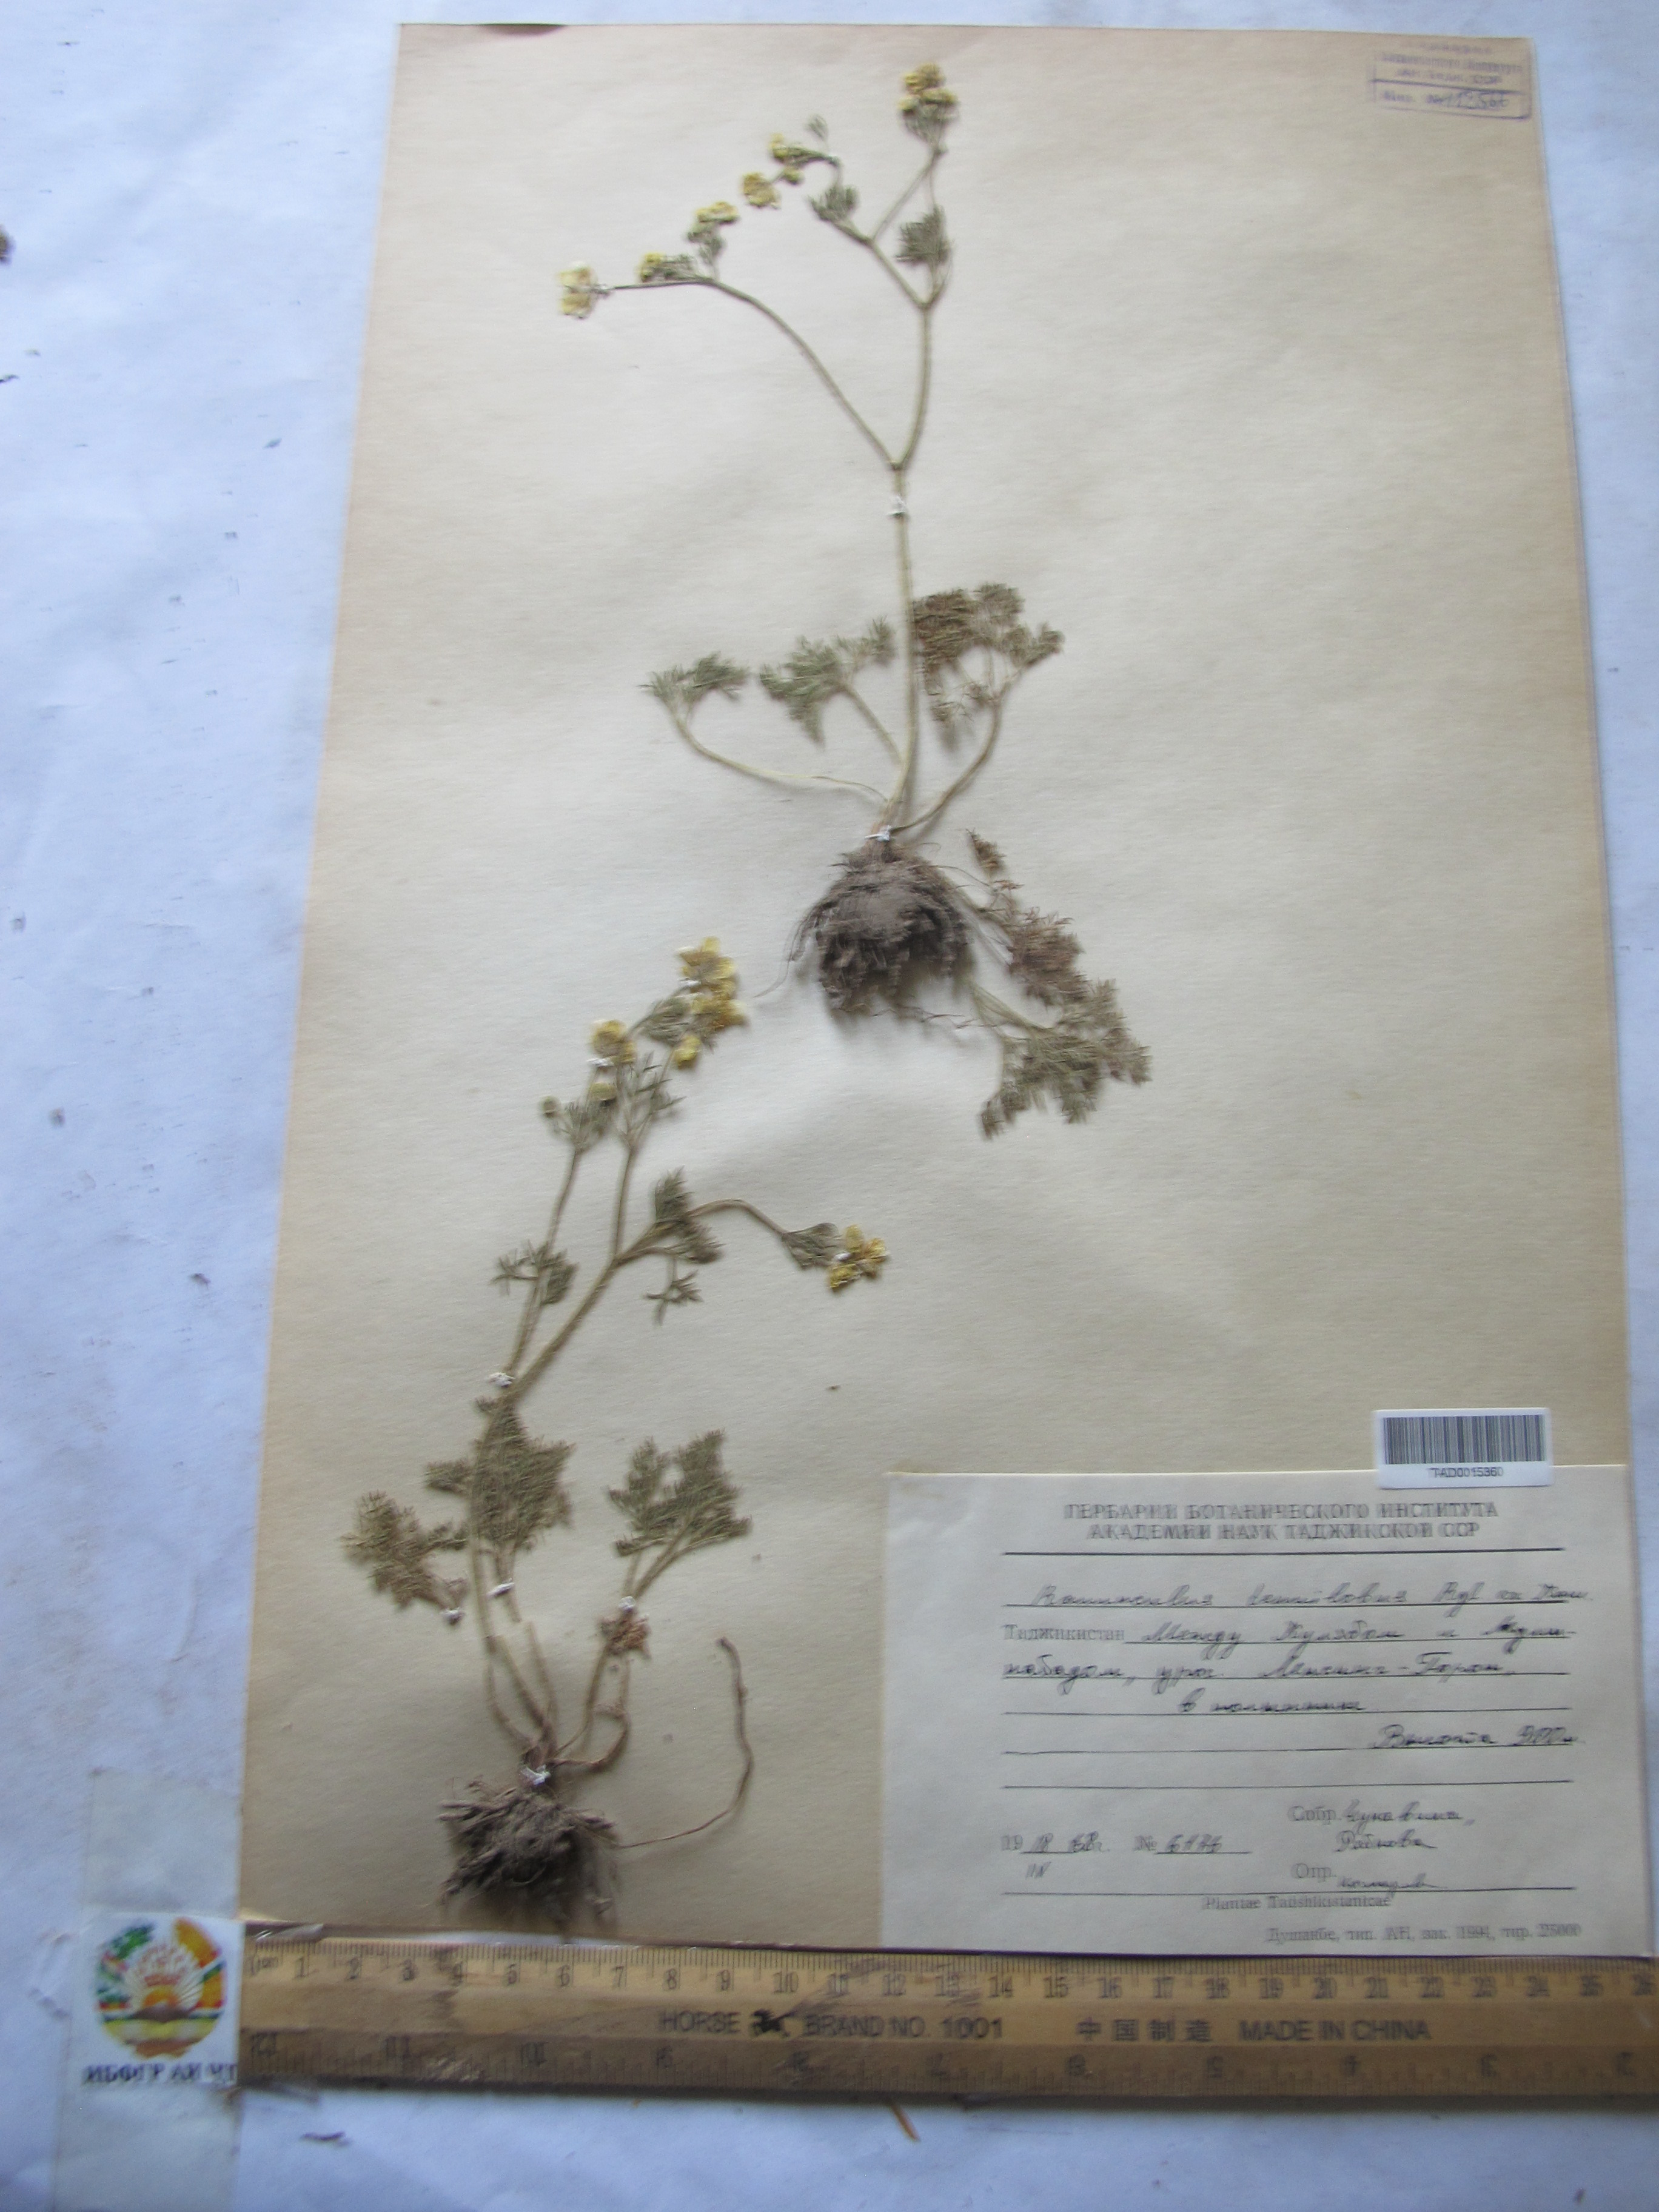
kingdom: Plantae
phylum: Tracheophyta
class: Magnoliopsida
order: Ranunculales
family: Ranunculaceae
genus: Ranunculus
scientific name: Ranunculus tenuilobus
